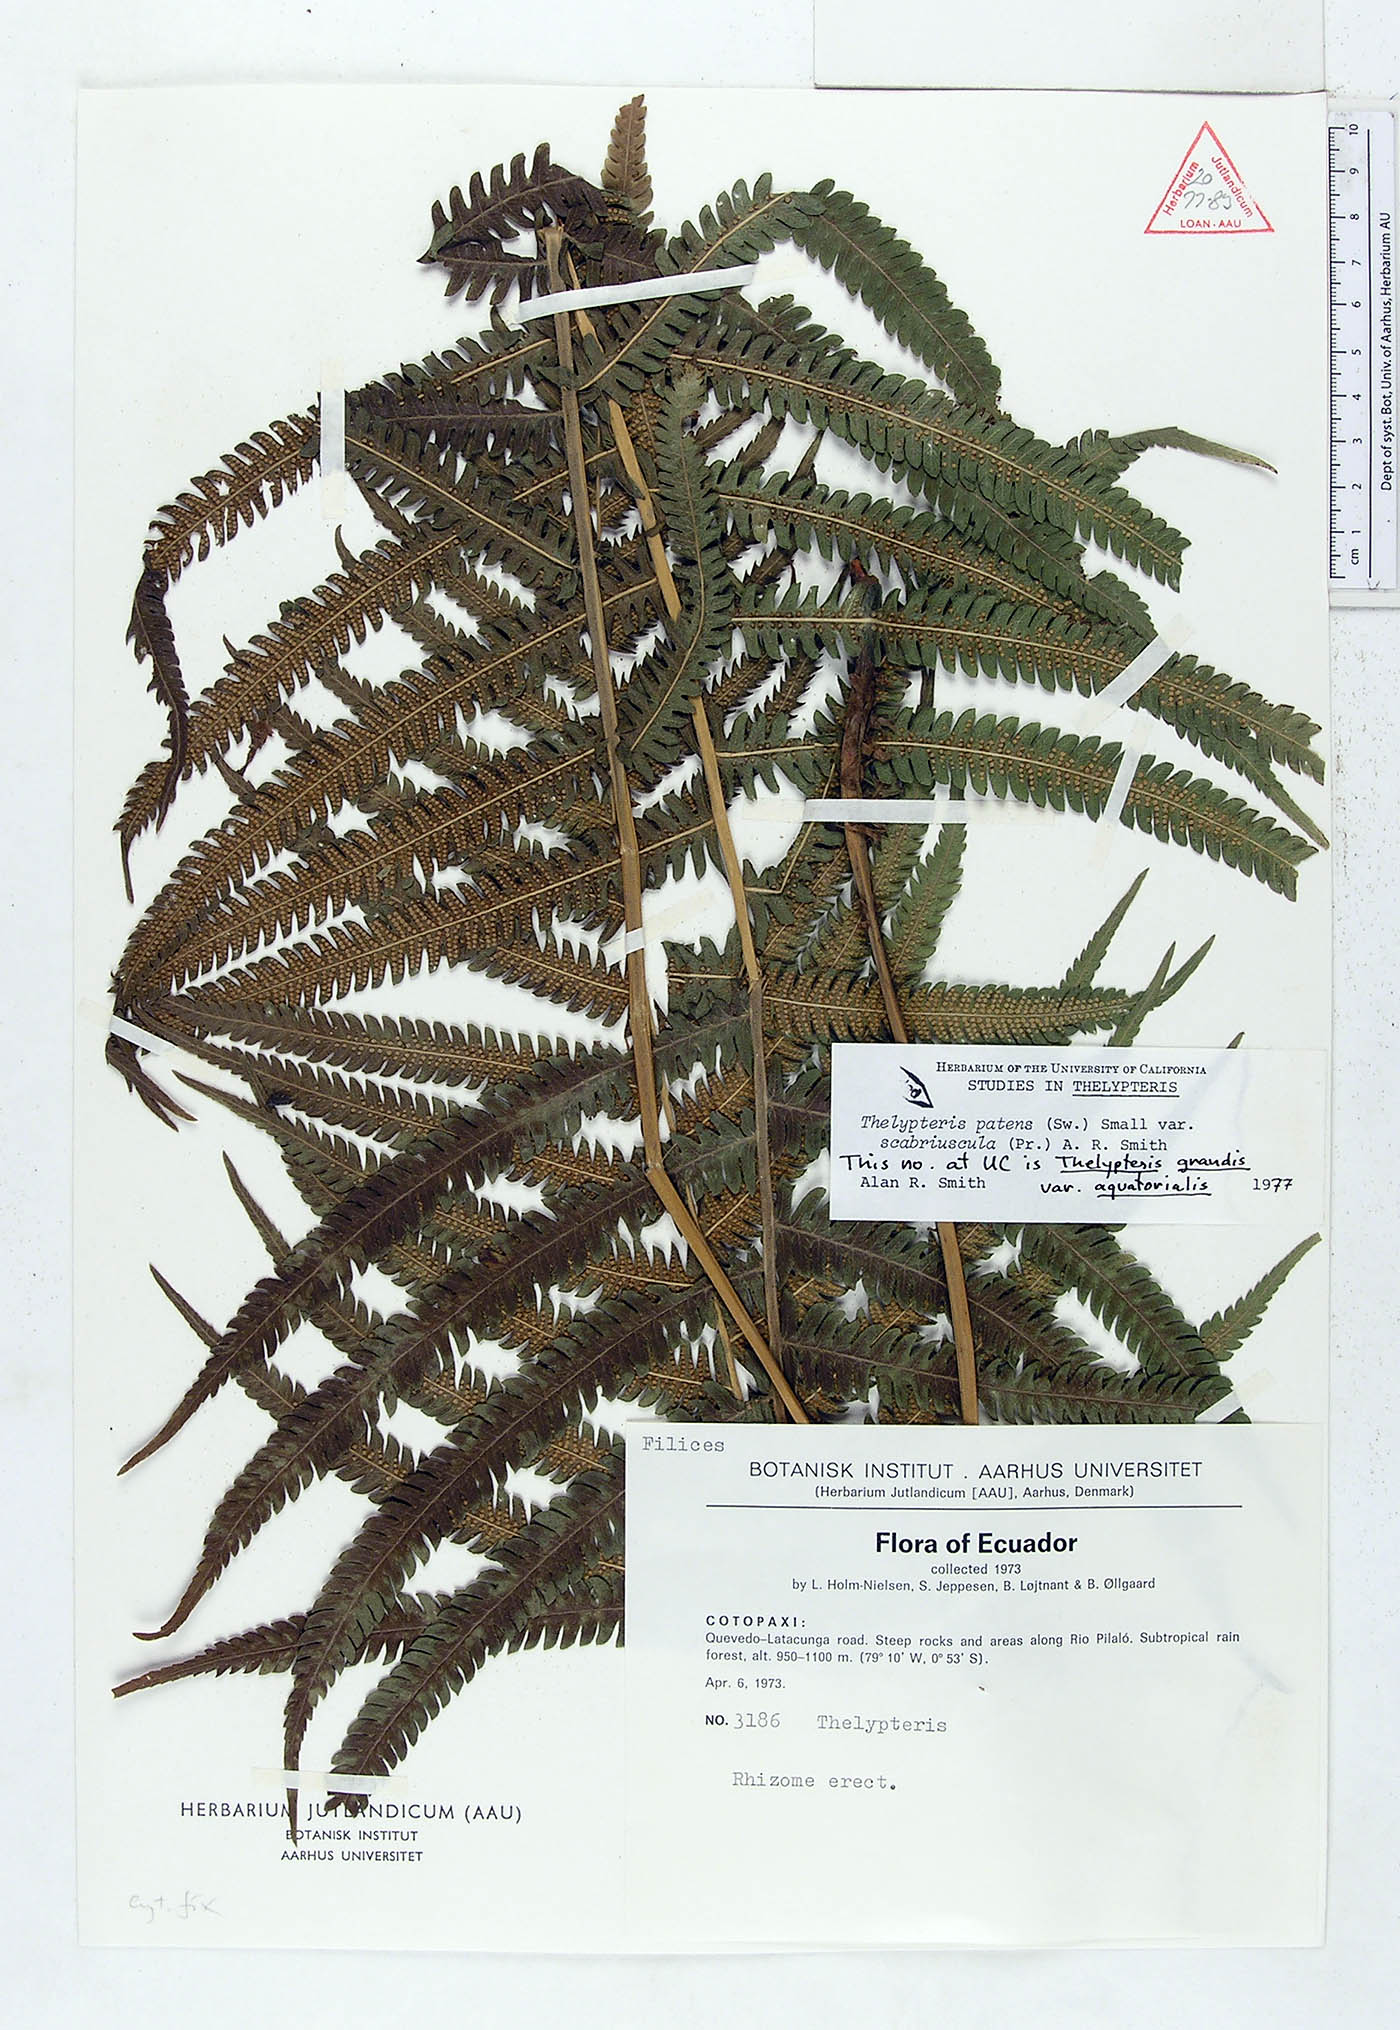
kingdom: Plantae
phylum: Tracheophyta
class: Polypodiopsida
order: Polypodiales
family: Thelypteridaceae
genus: Pelazoneuron
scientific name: Pelazoneuron patens
